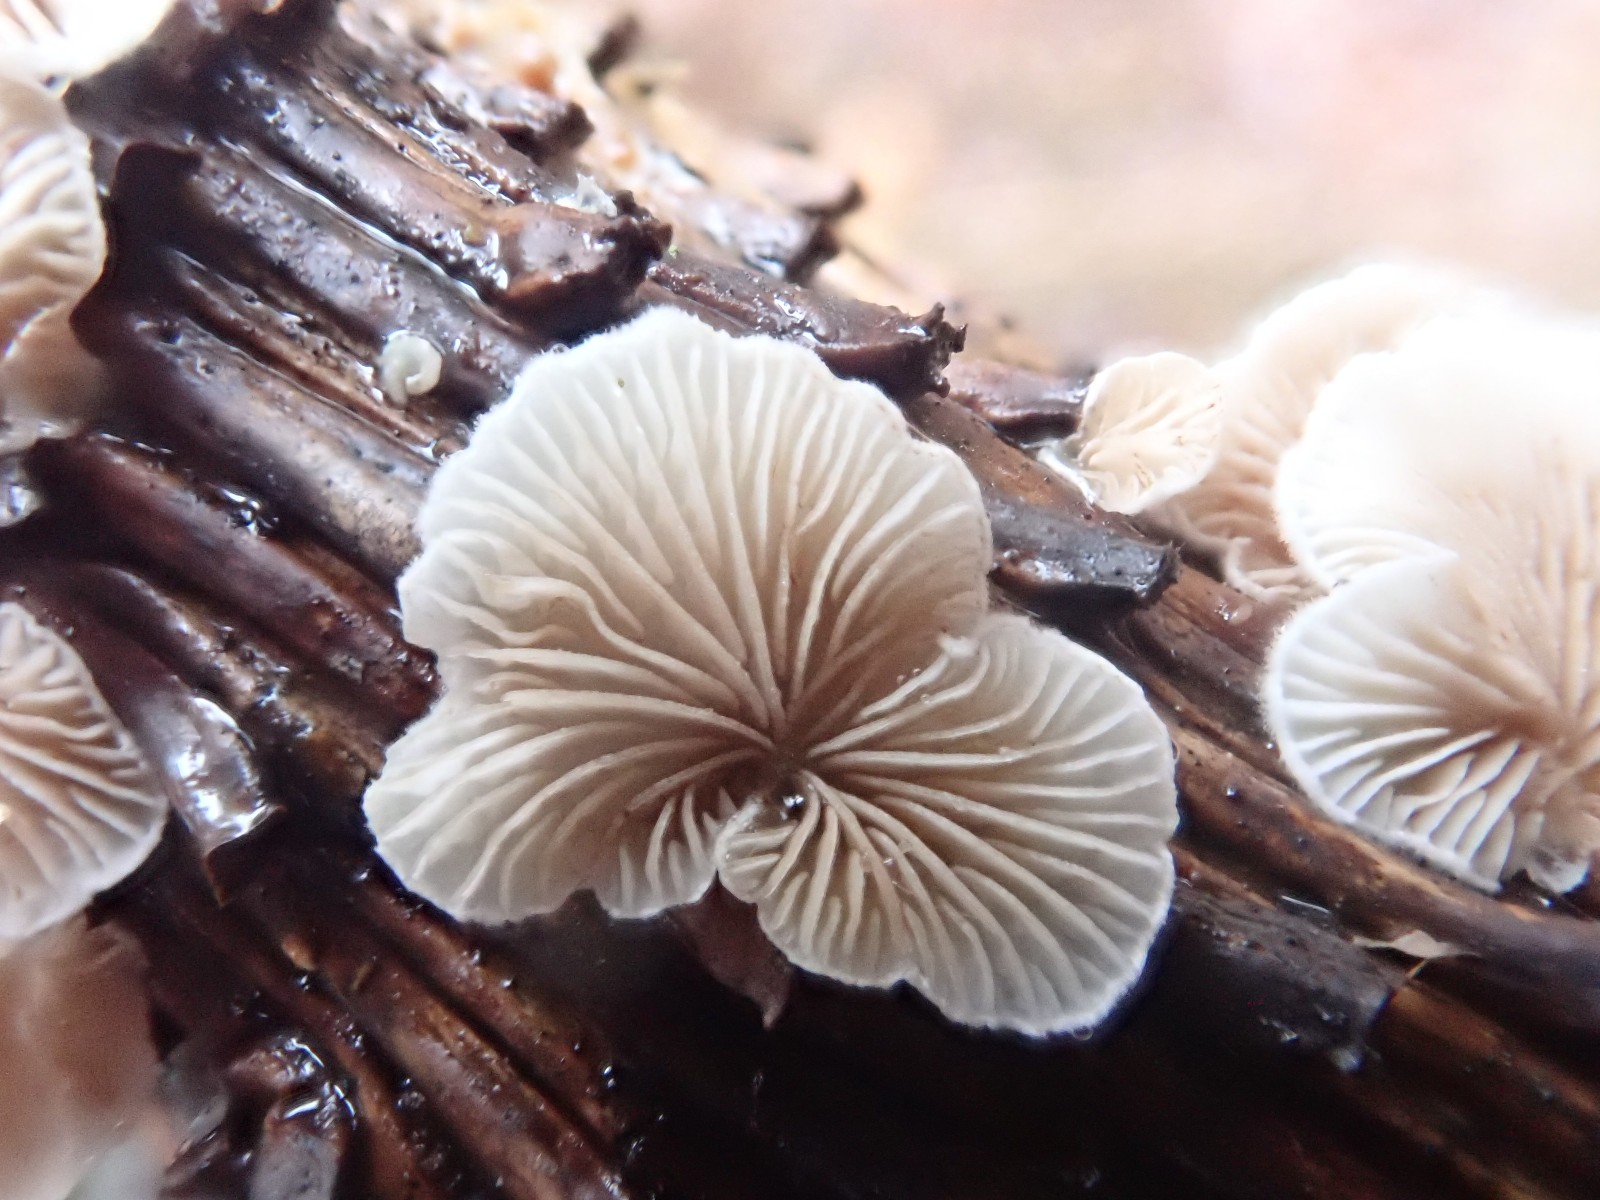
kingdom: Fungi
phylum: Basidiomycota
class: Agaricomycetes
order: Agaricales
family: Crepidotaceae
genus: Crepidotus
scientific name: Crepidotus
